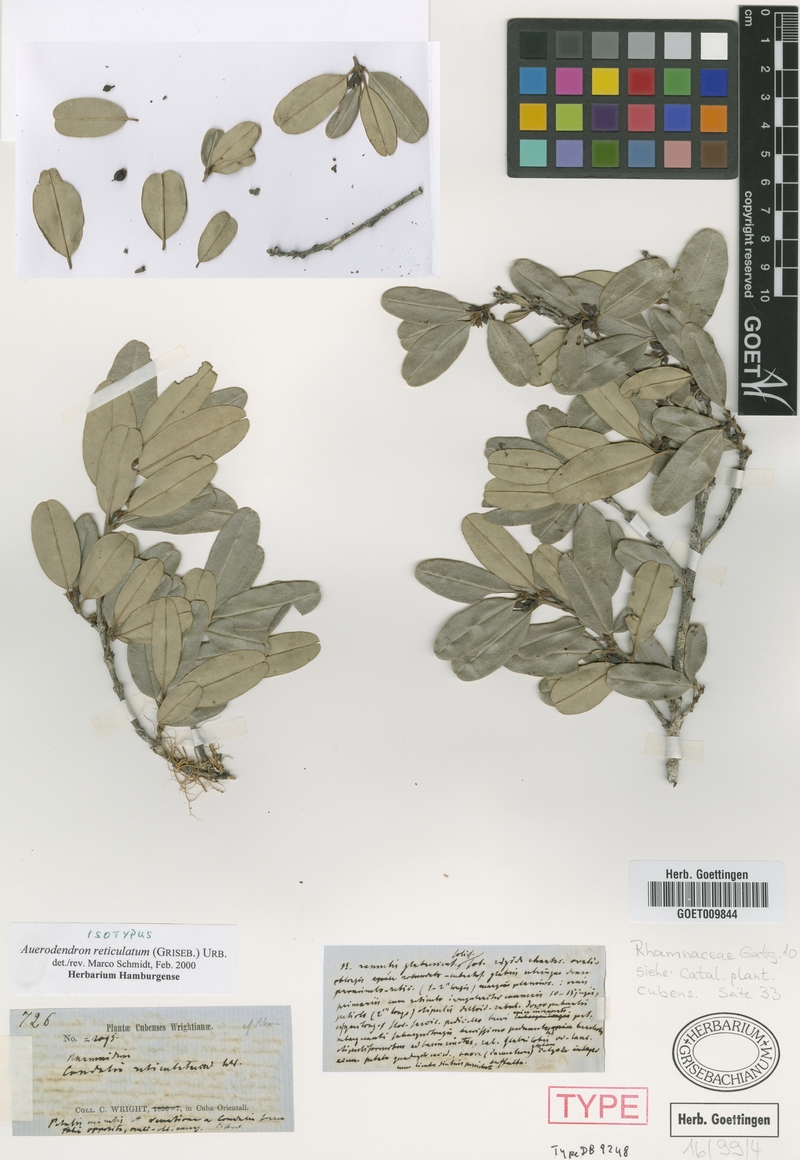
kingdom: Plantae
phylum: Tracheophyta
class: Magnoliopsida
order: Rosales
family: Rhamnaceae
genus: Auerodendron
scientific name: Auerodendron reticulatum
